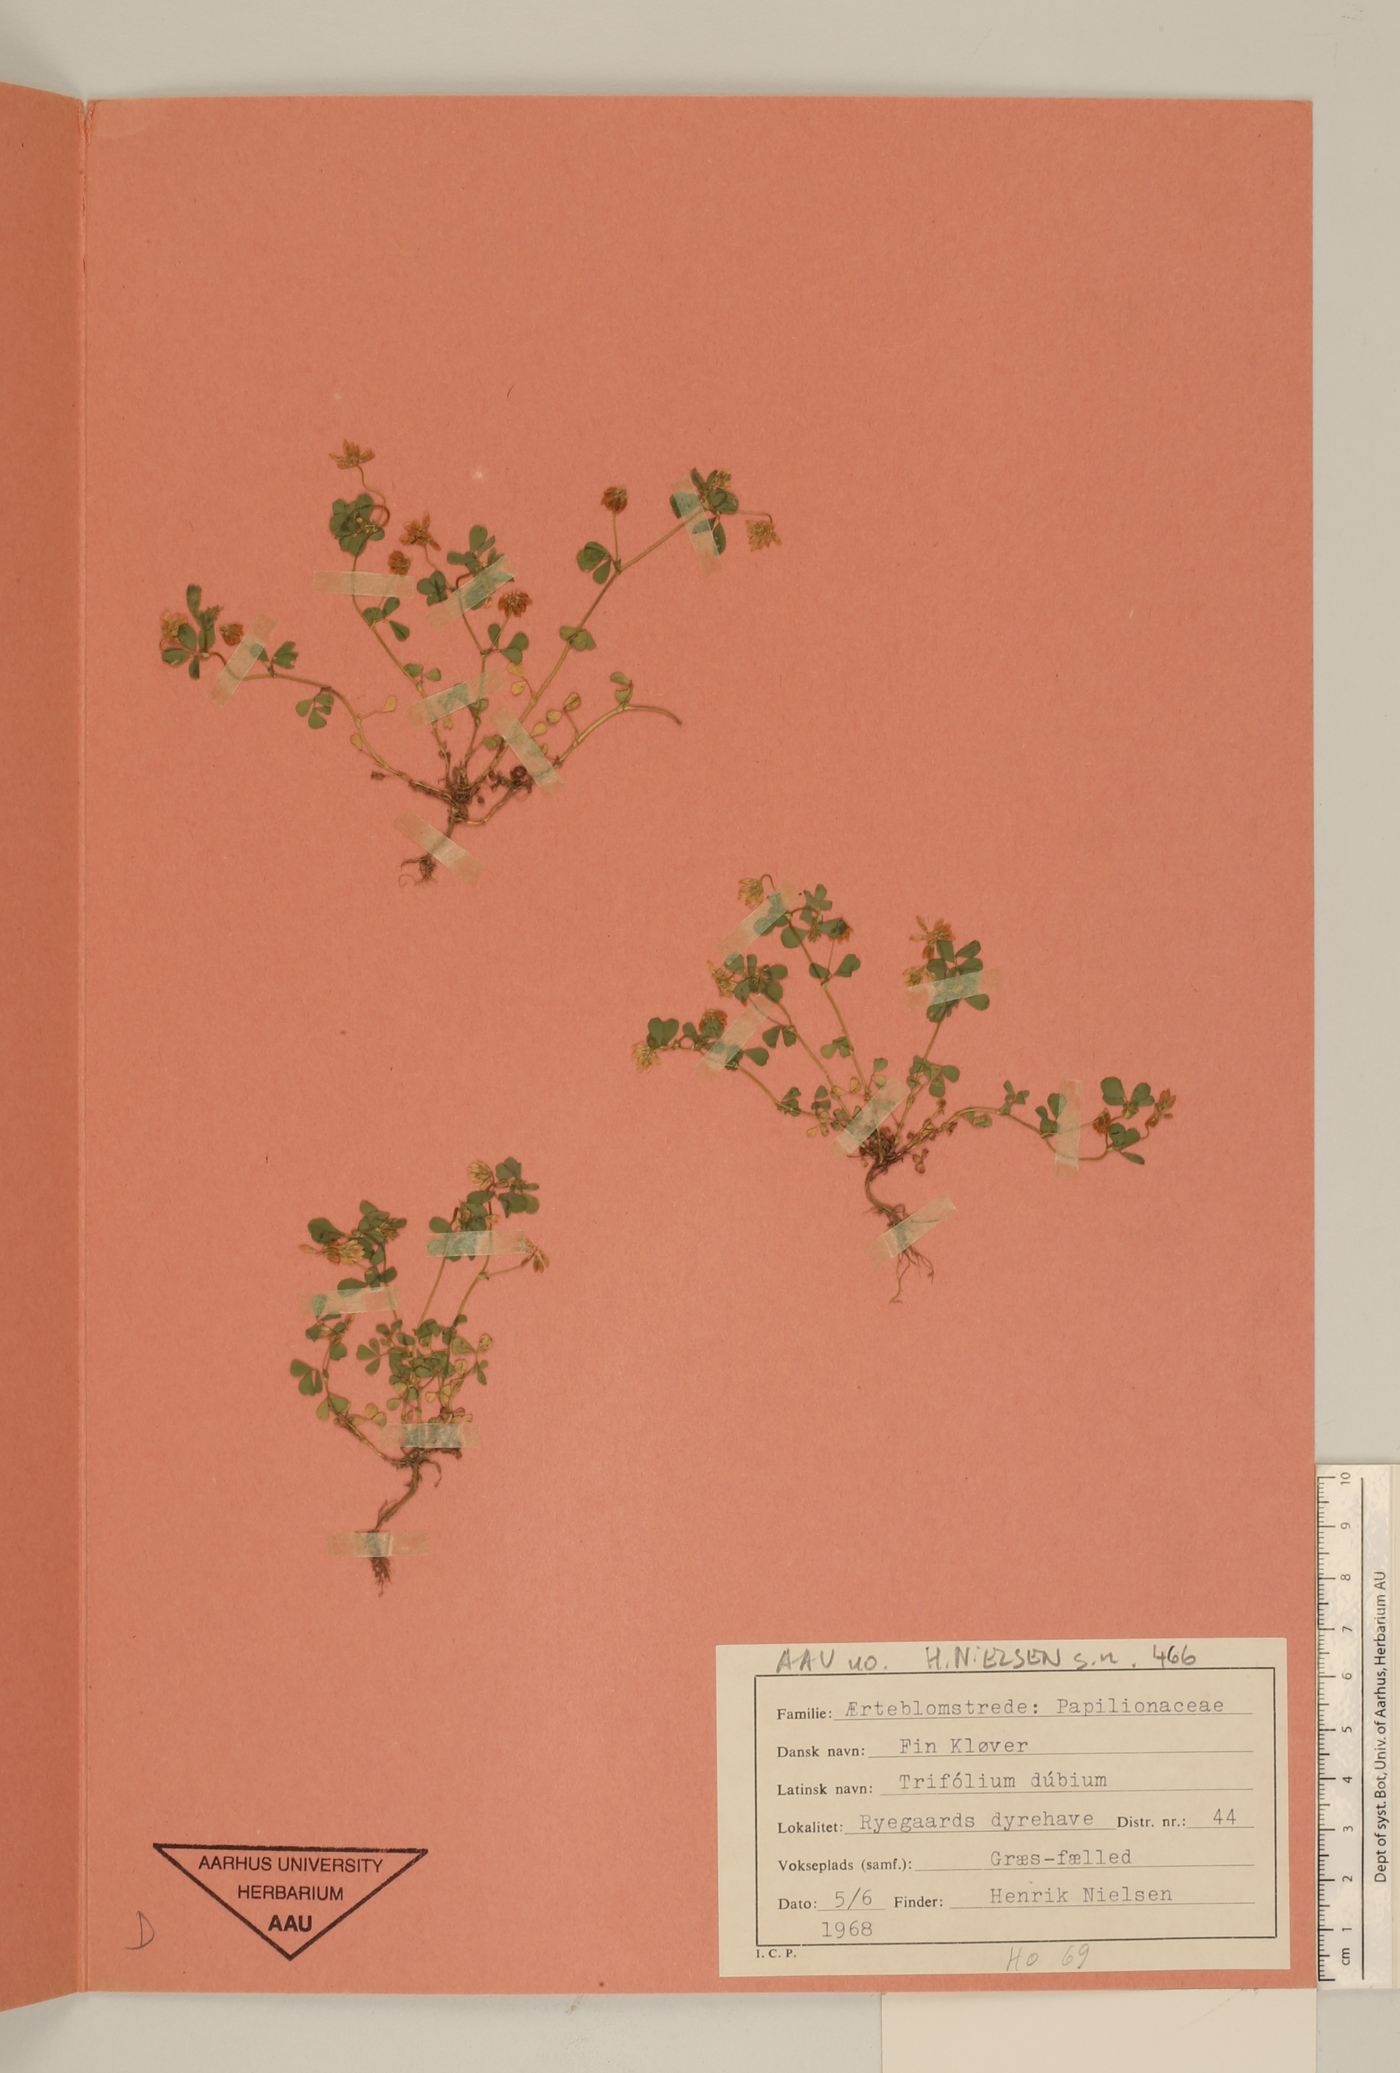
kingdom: Plantae
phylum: Tracheophyta
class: Magnoliopsida
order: Fabales
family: Fabaceae
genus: Trifolium
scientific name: Trifolium dubium
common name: Suckling clover
